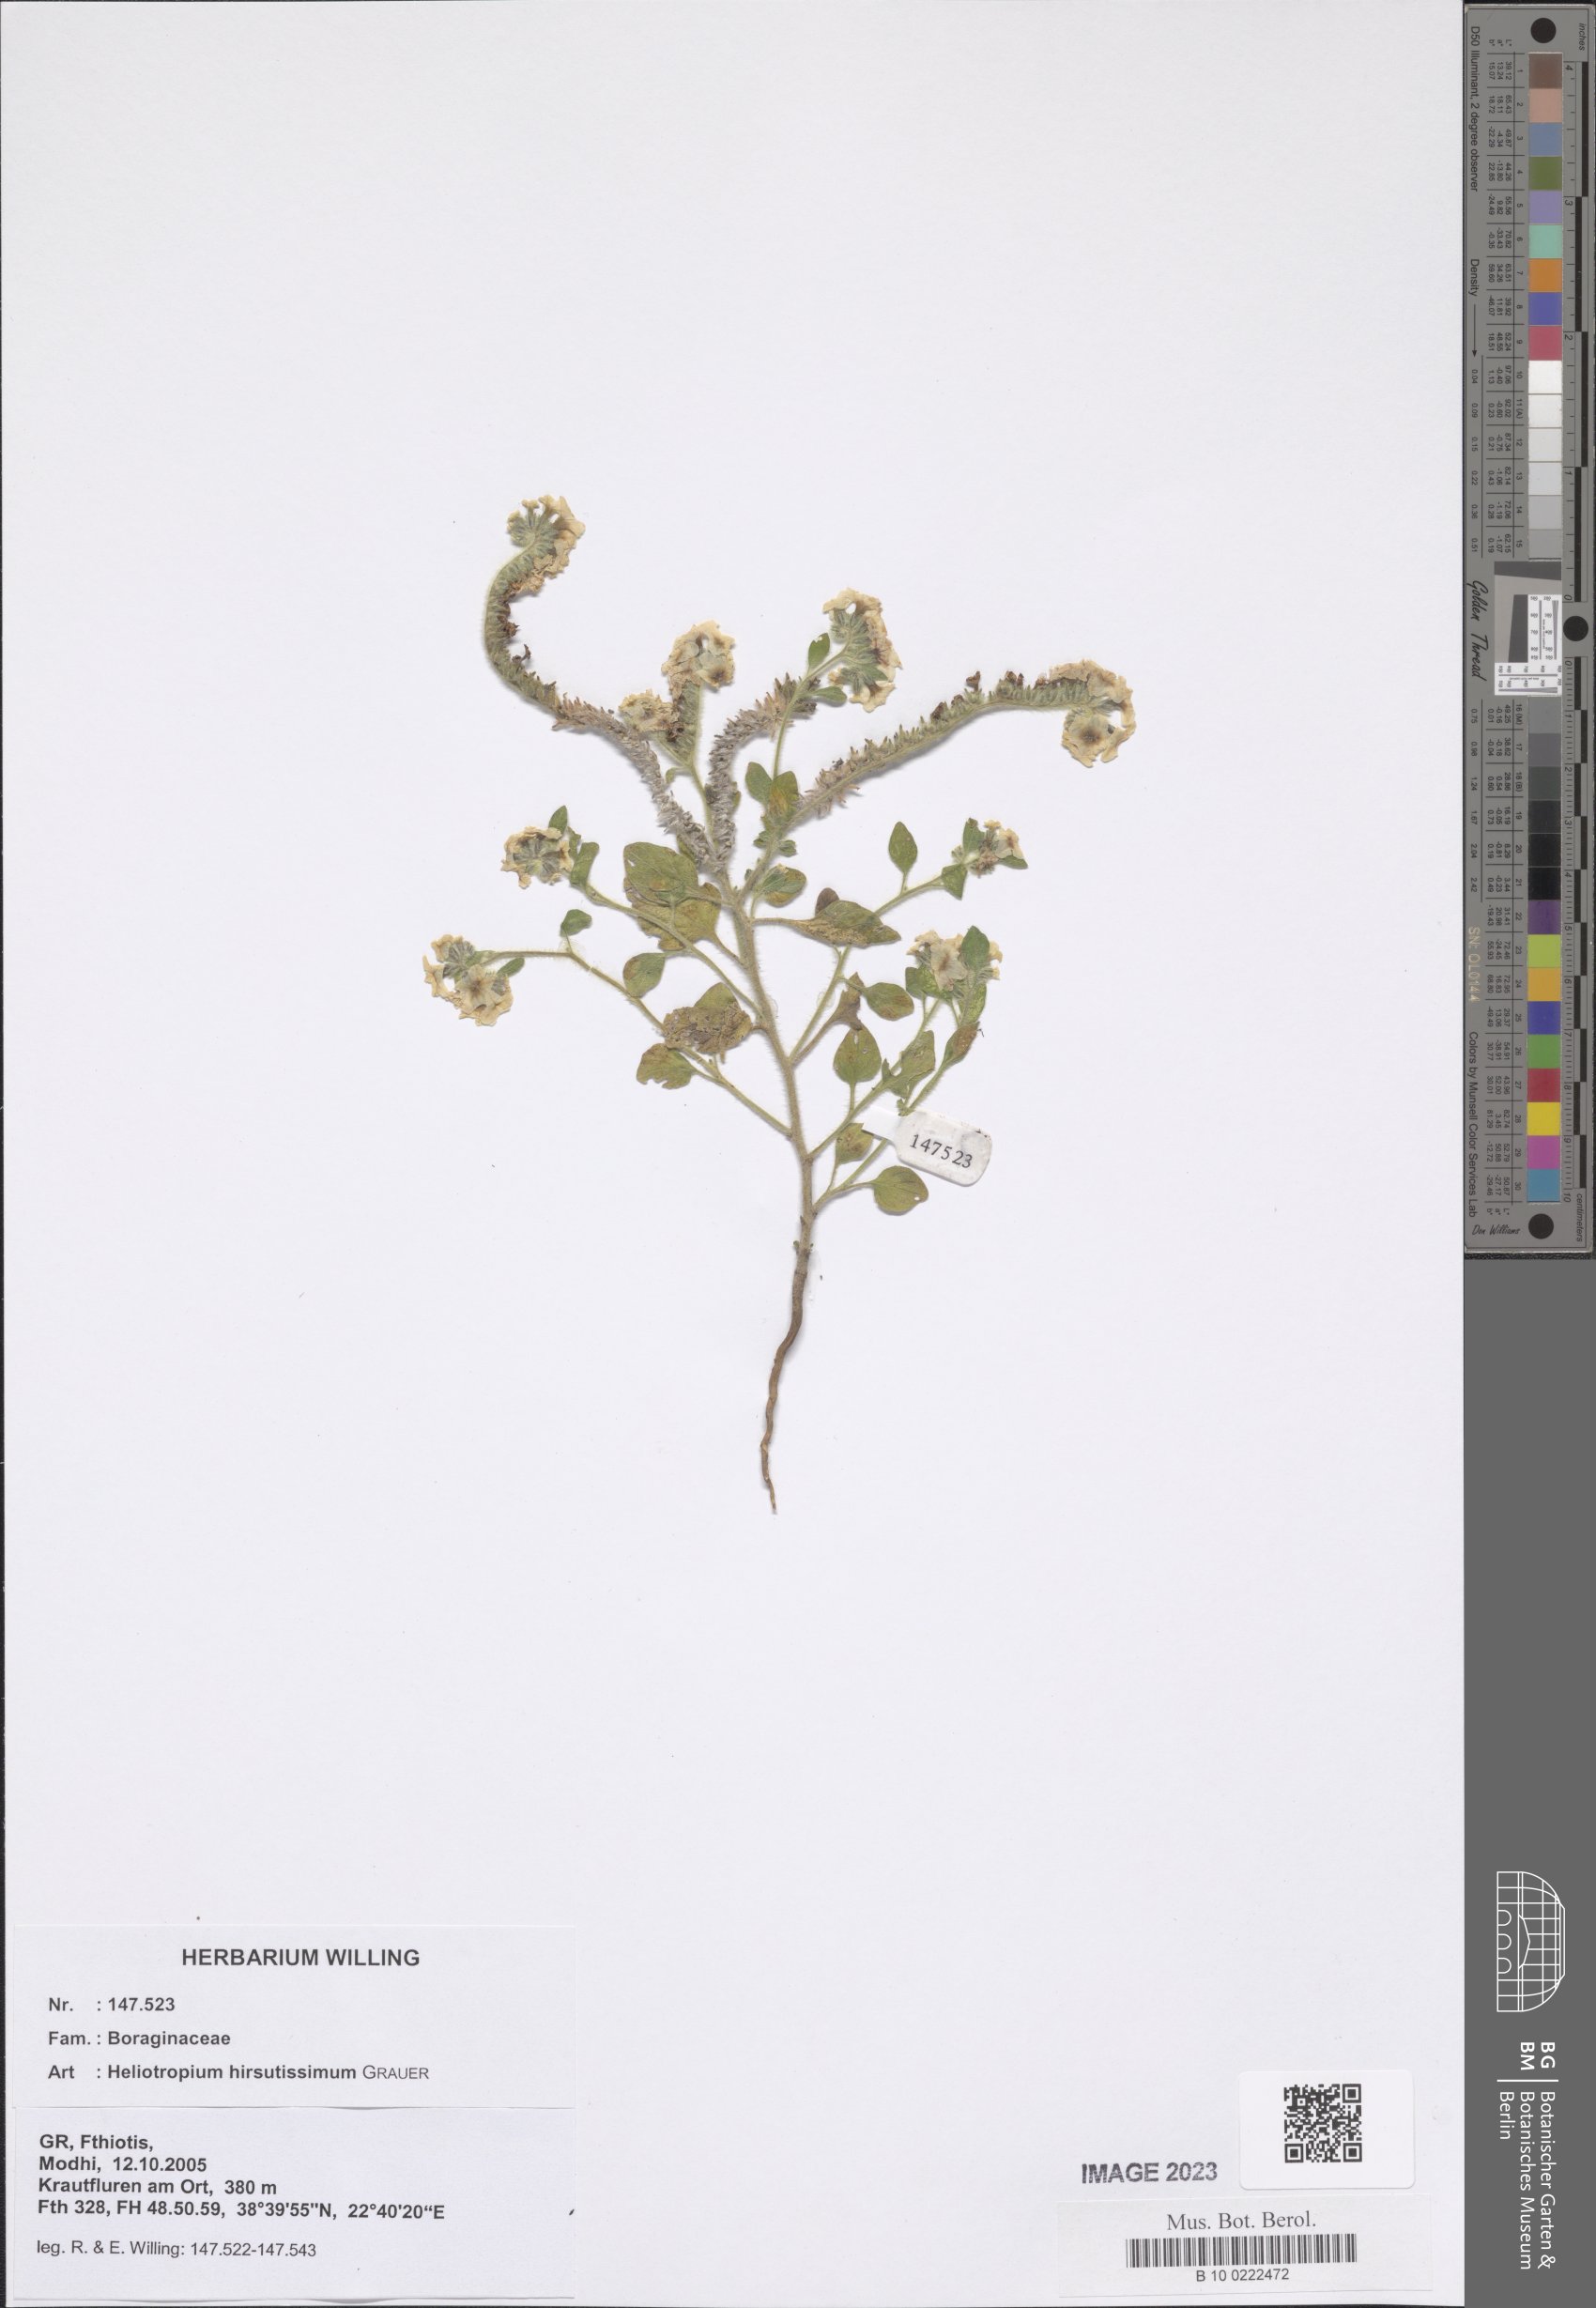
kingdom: Plantae
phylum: Tracheophyta
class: Magnoliopsida
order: Boraginales
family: Heliotropiaceae
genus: Heliotropium
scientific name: Heliotropium hirsutissimum
